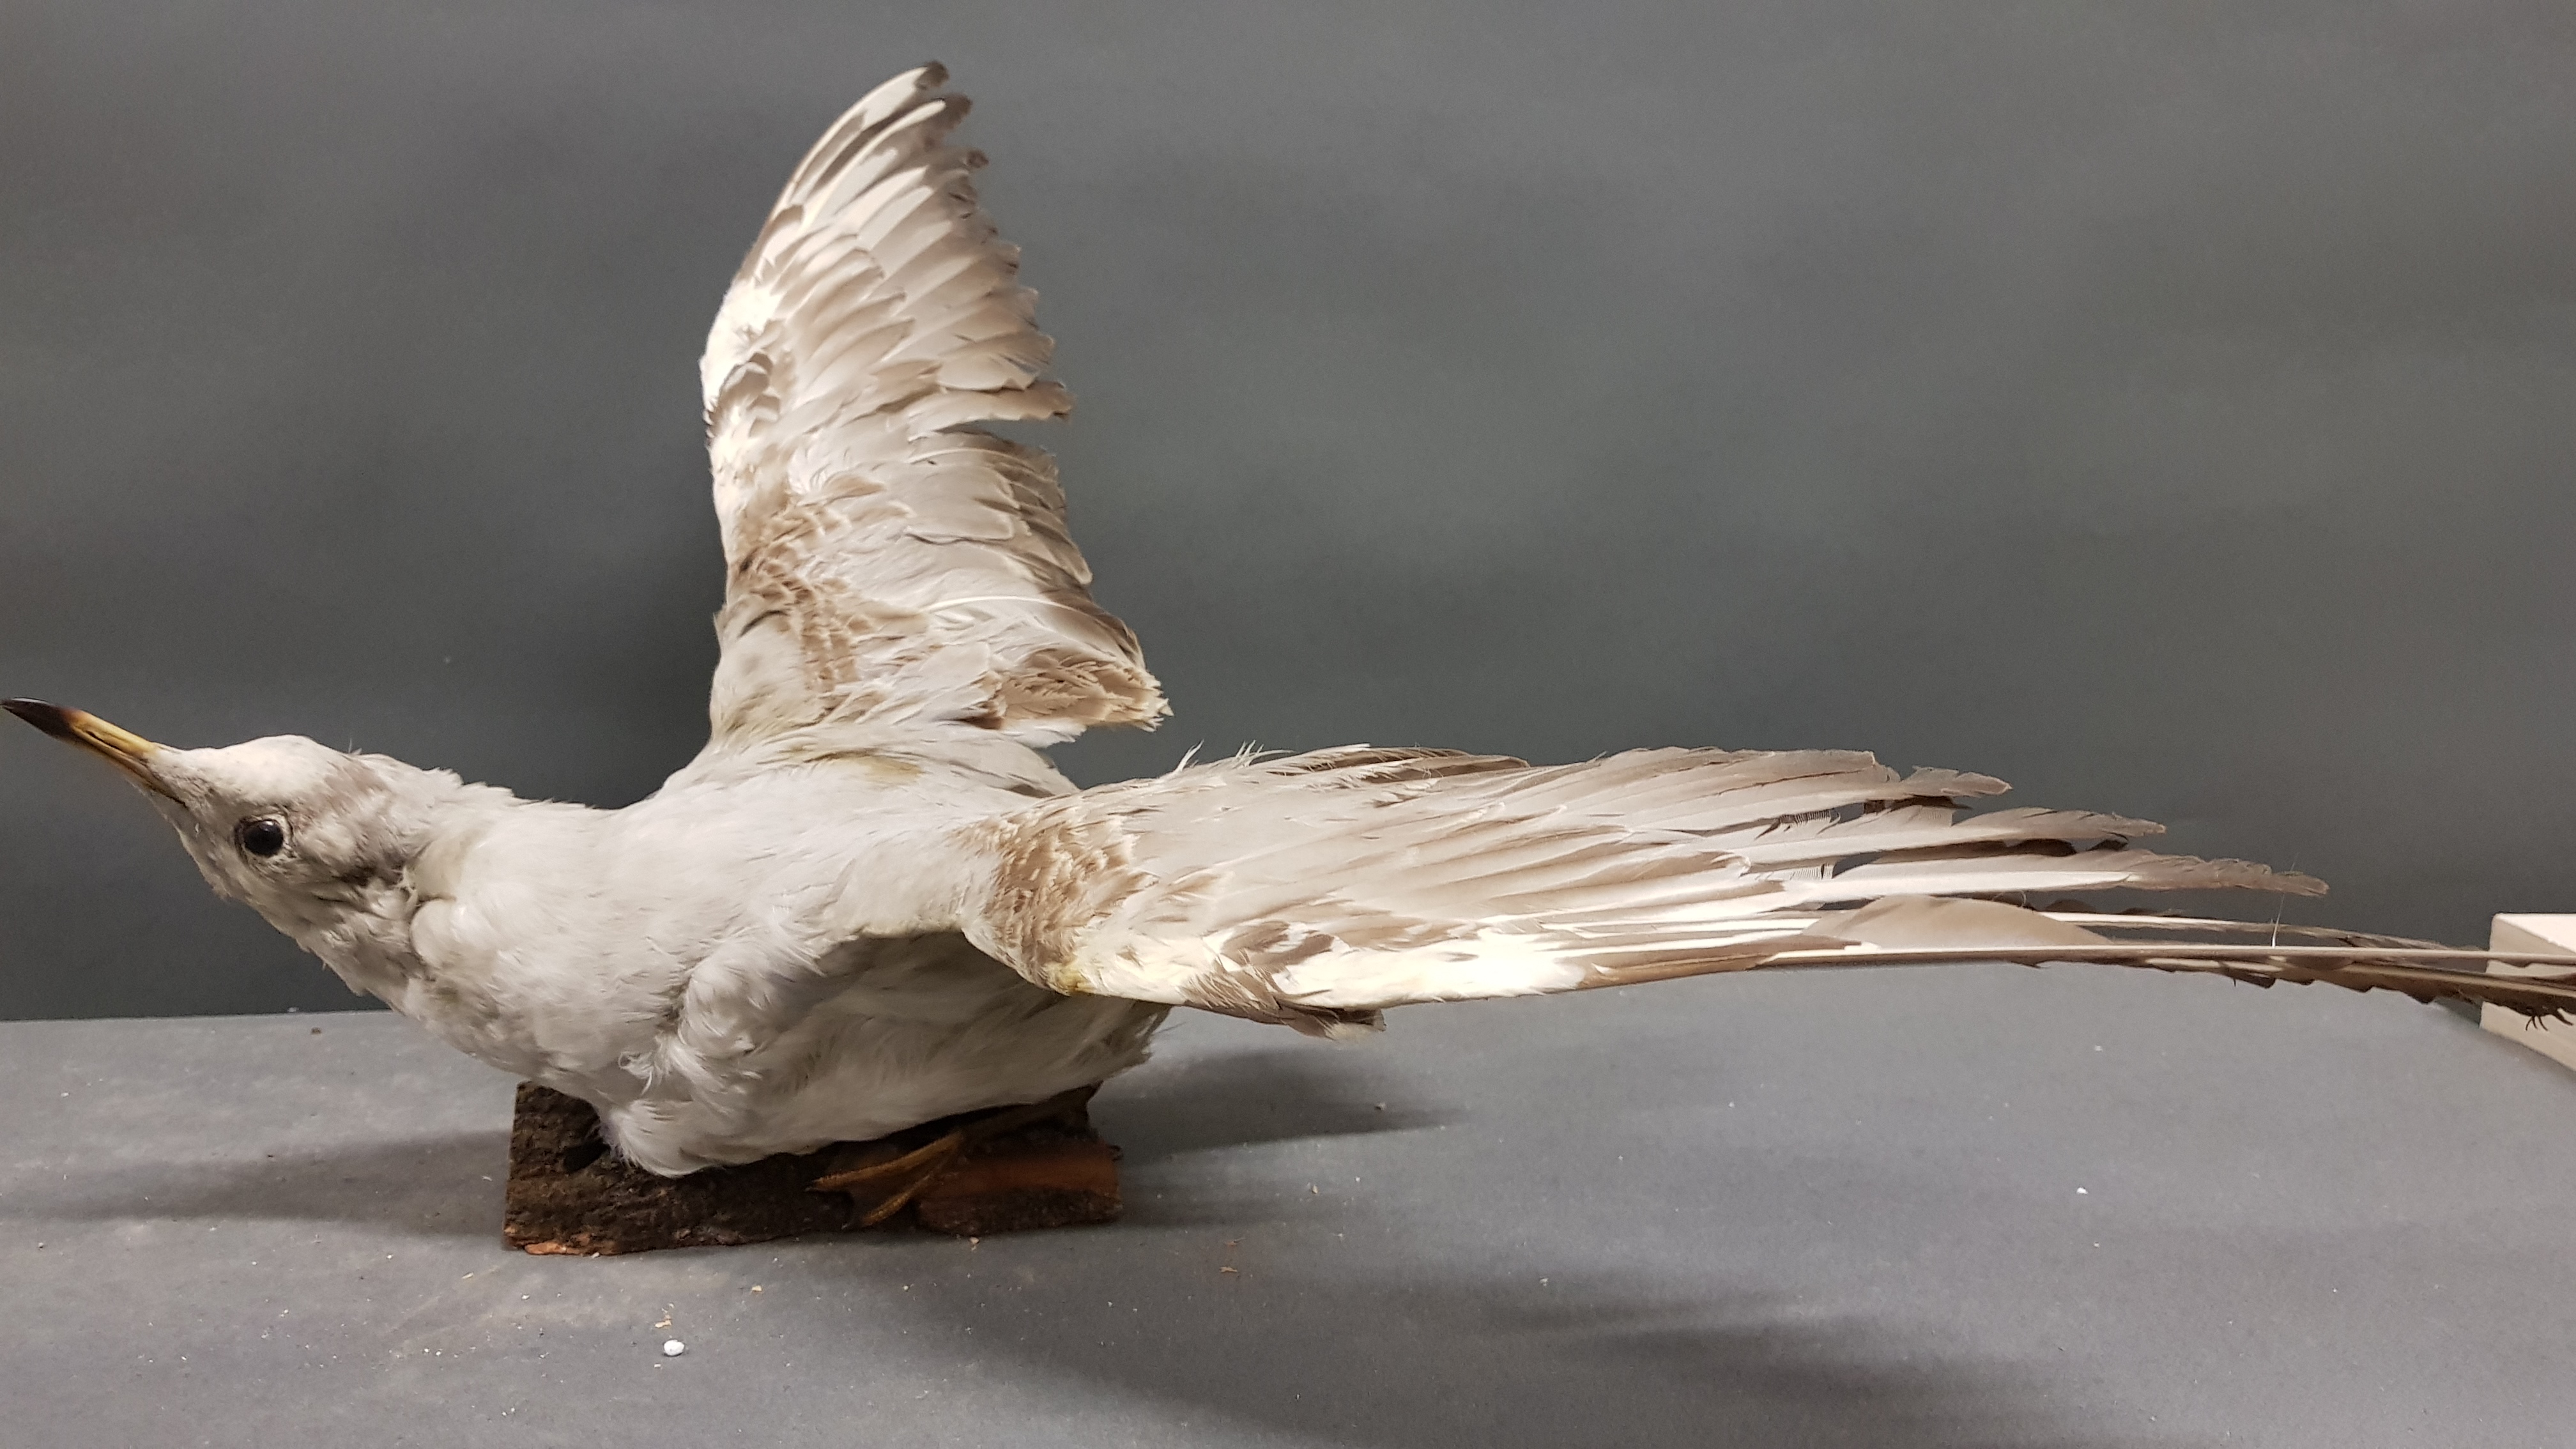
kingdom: Animalia
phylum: Chordata
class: Aves
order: Charadriiformes
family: Laridae
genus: Chroicocephalus
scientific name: Chroicocephalus ridibundus
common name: Black-headed gull
